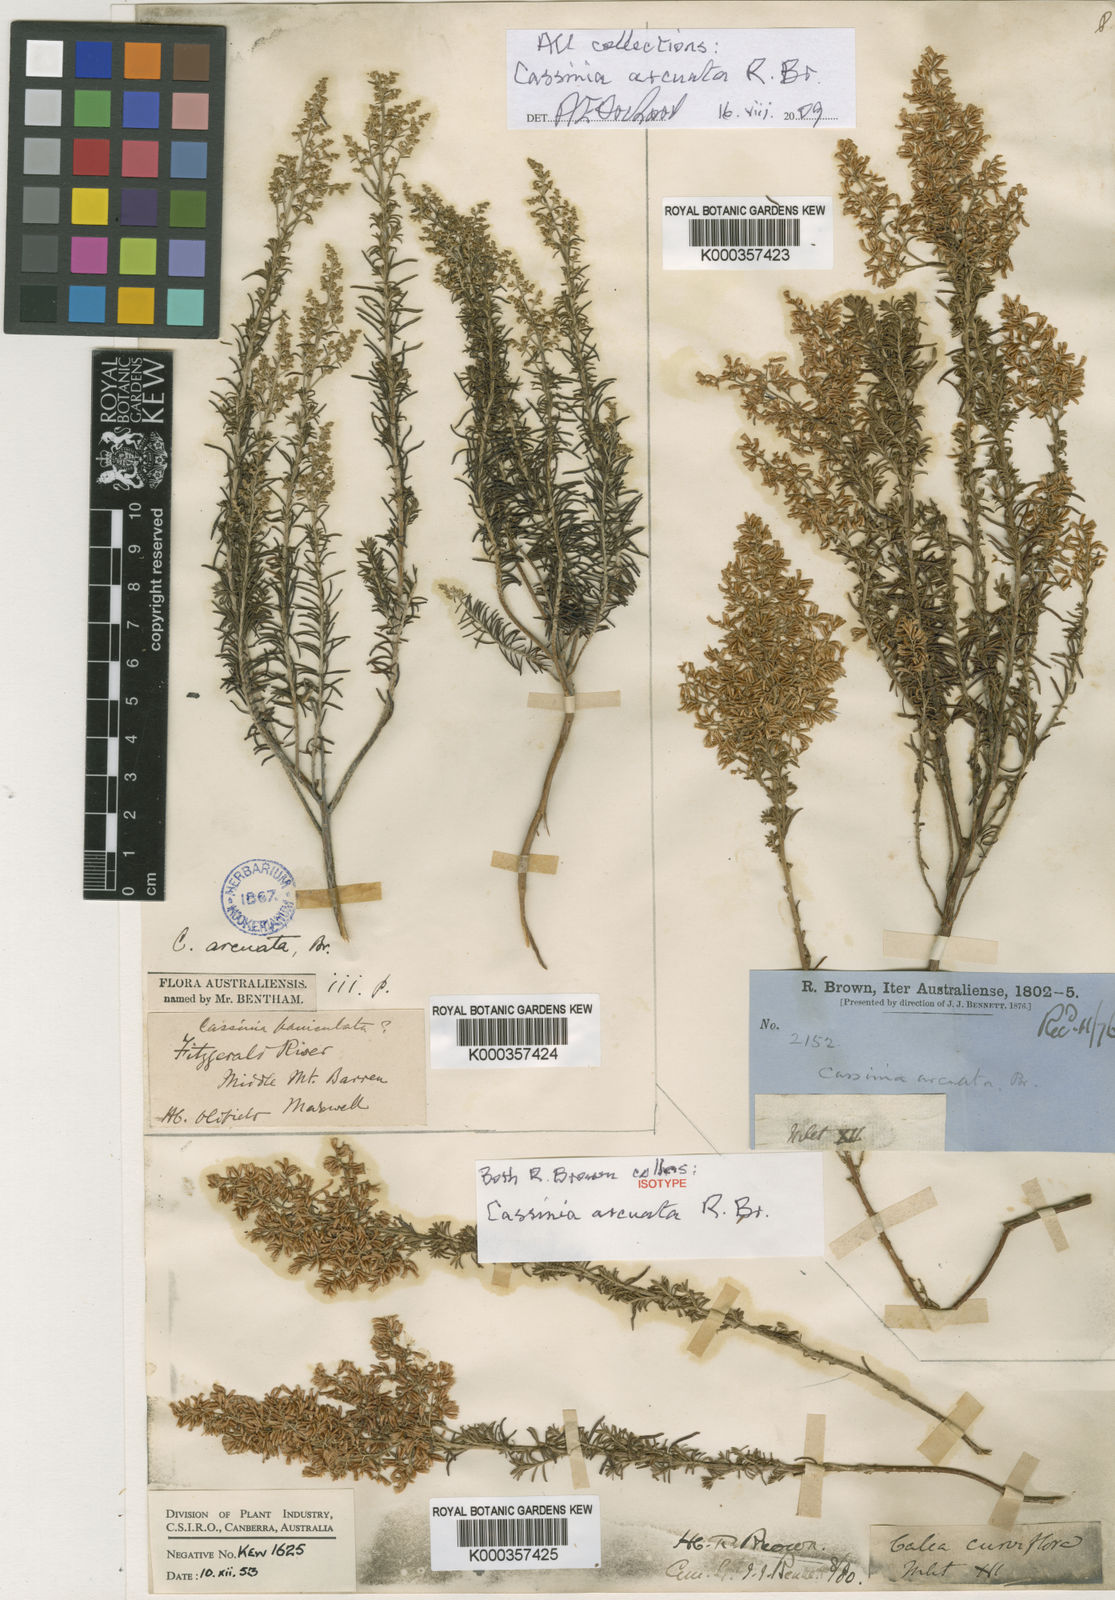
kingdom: Plantae
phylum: Tracheophyta
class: Magnoliopsida
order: Asterales
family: Asteraceae
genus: Cassinia
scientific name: Cassinia arcuata
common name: Chineseshrub
